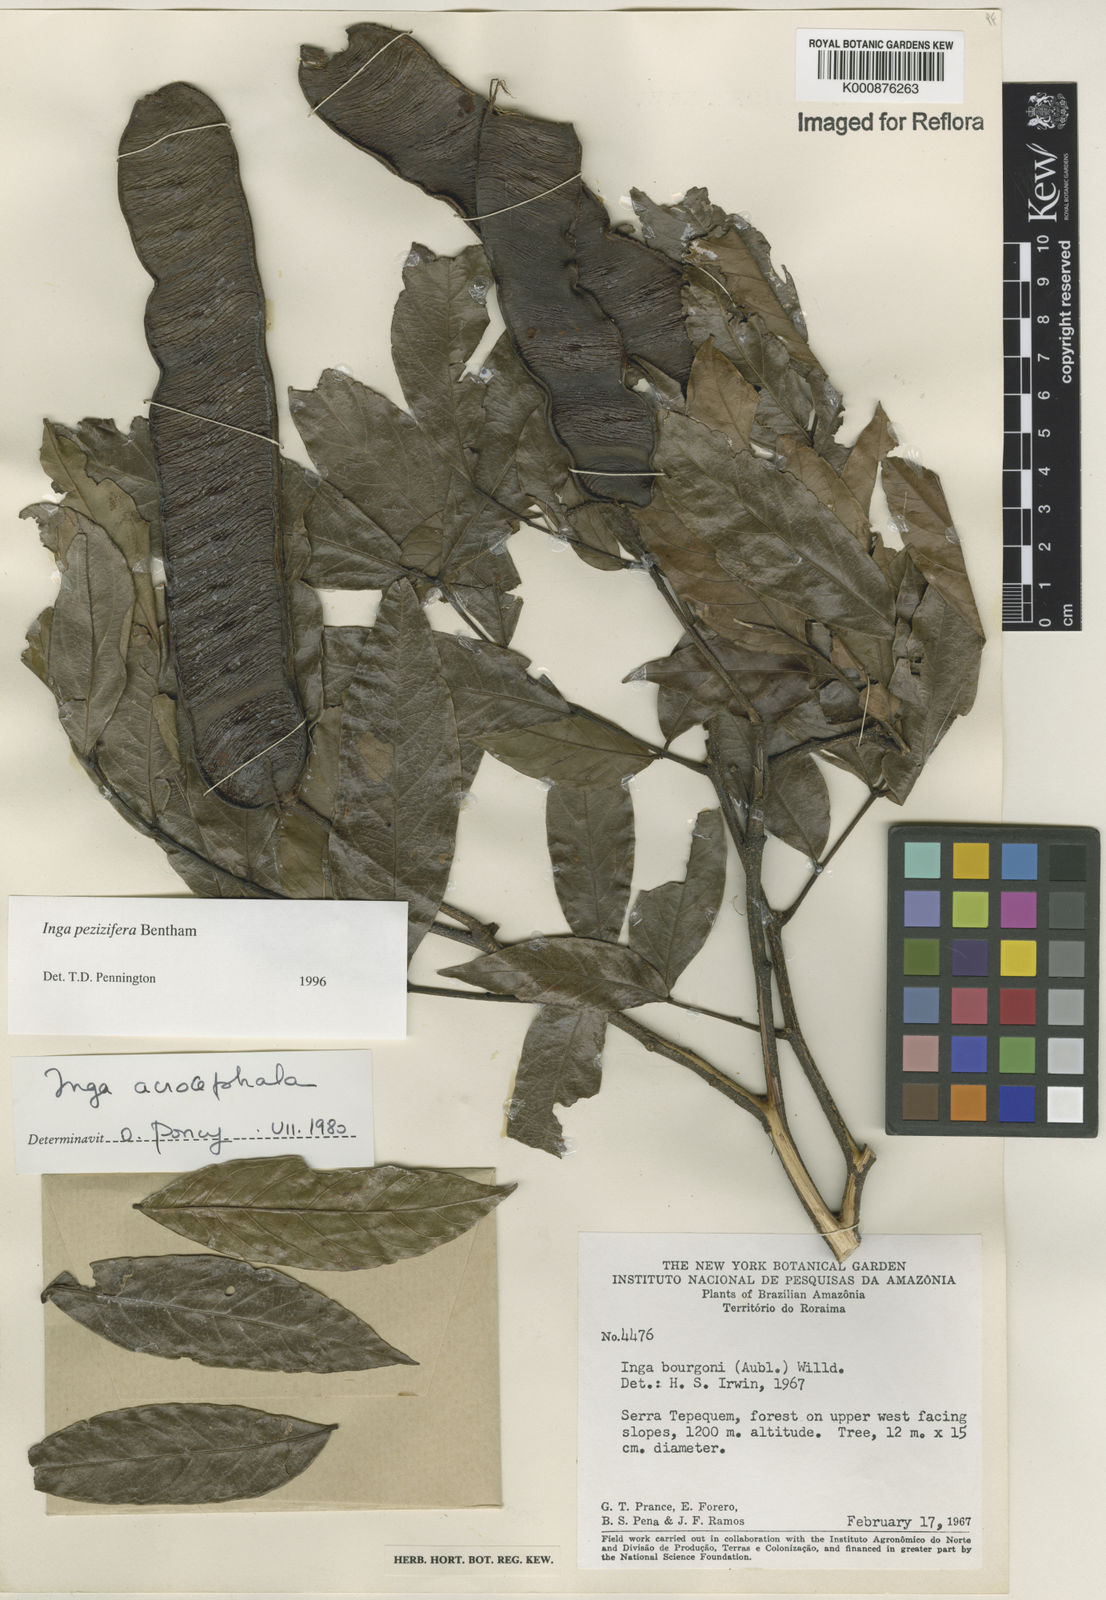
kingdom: Plantae
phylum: Tracheophyta
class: Magnoliopsida
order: Fabales
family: Fabaceae
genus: Inga
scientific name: Inga pezizifera
